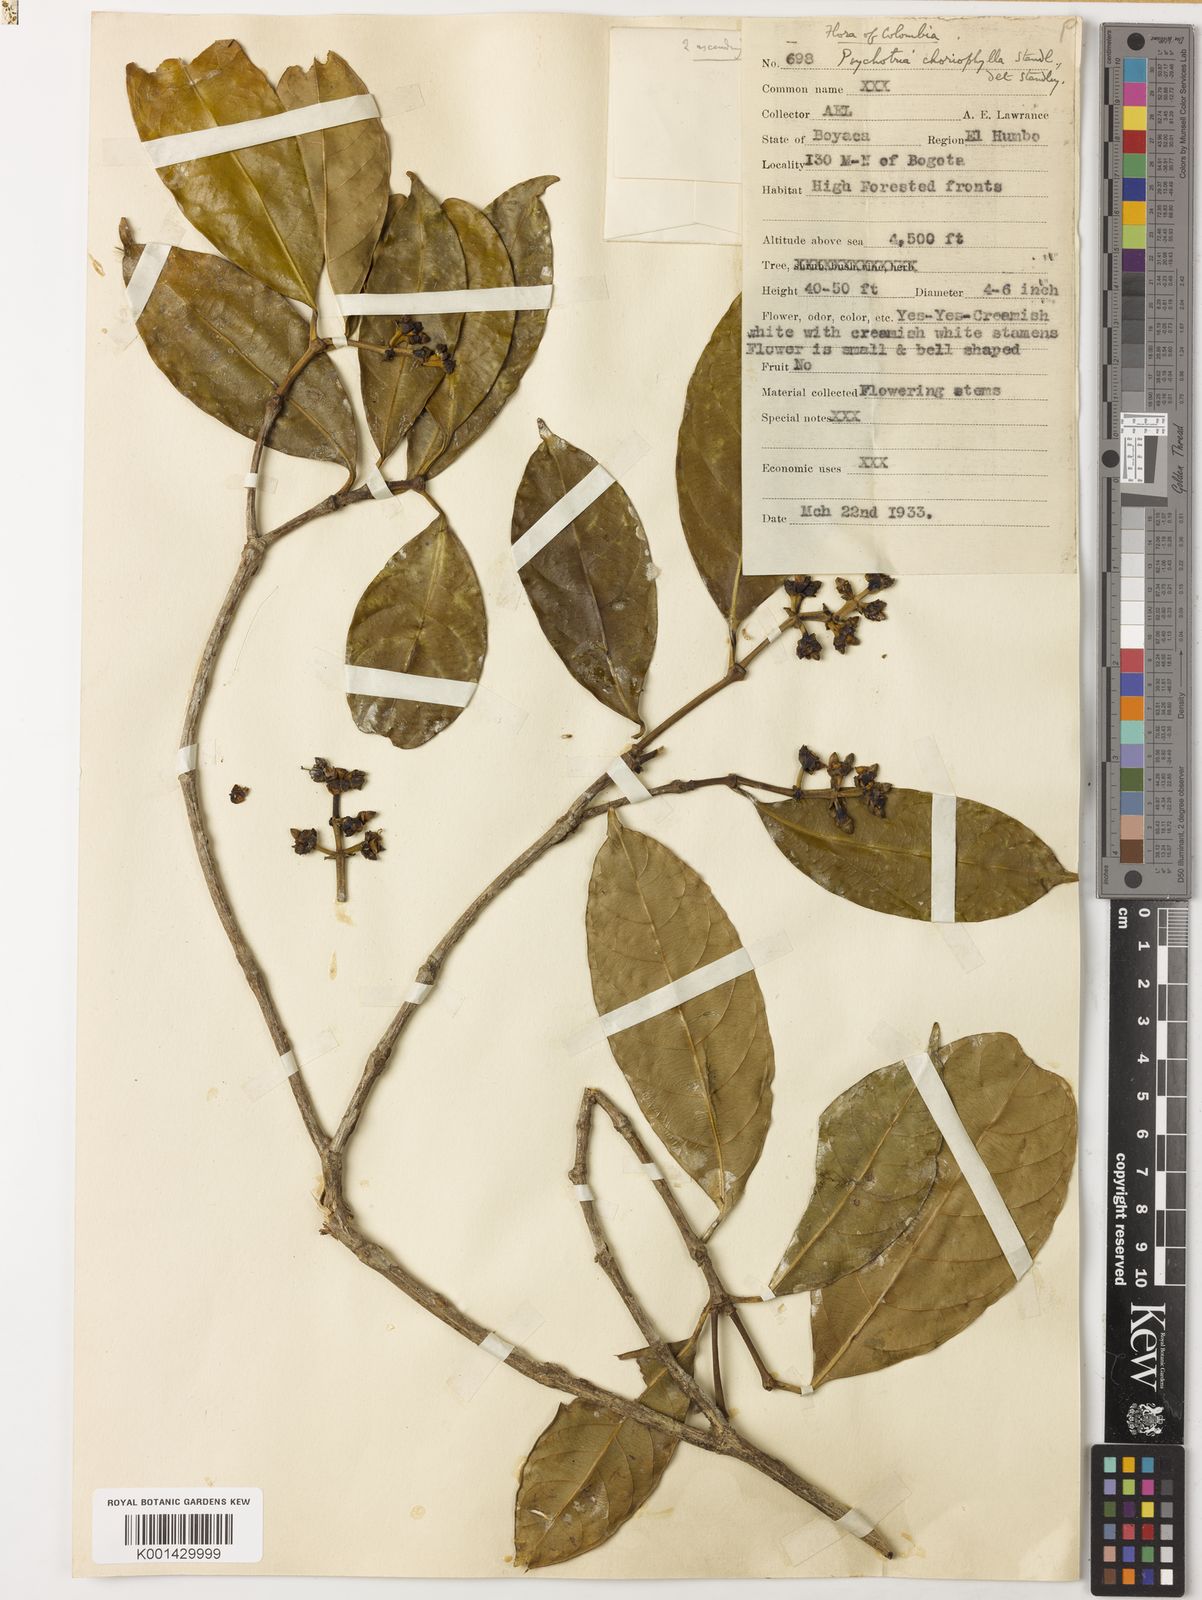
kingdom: Plantae
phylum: Tracheophyta
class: Magnoliopsida
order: Gentianales
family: Rubiaceae
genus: Rudgea
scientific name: Rudgea colombiana
